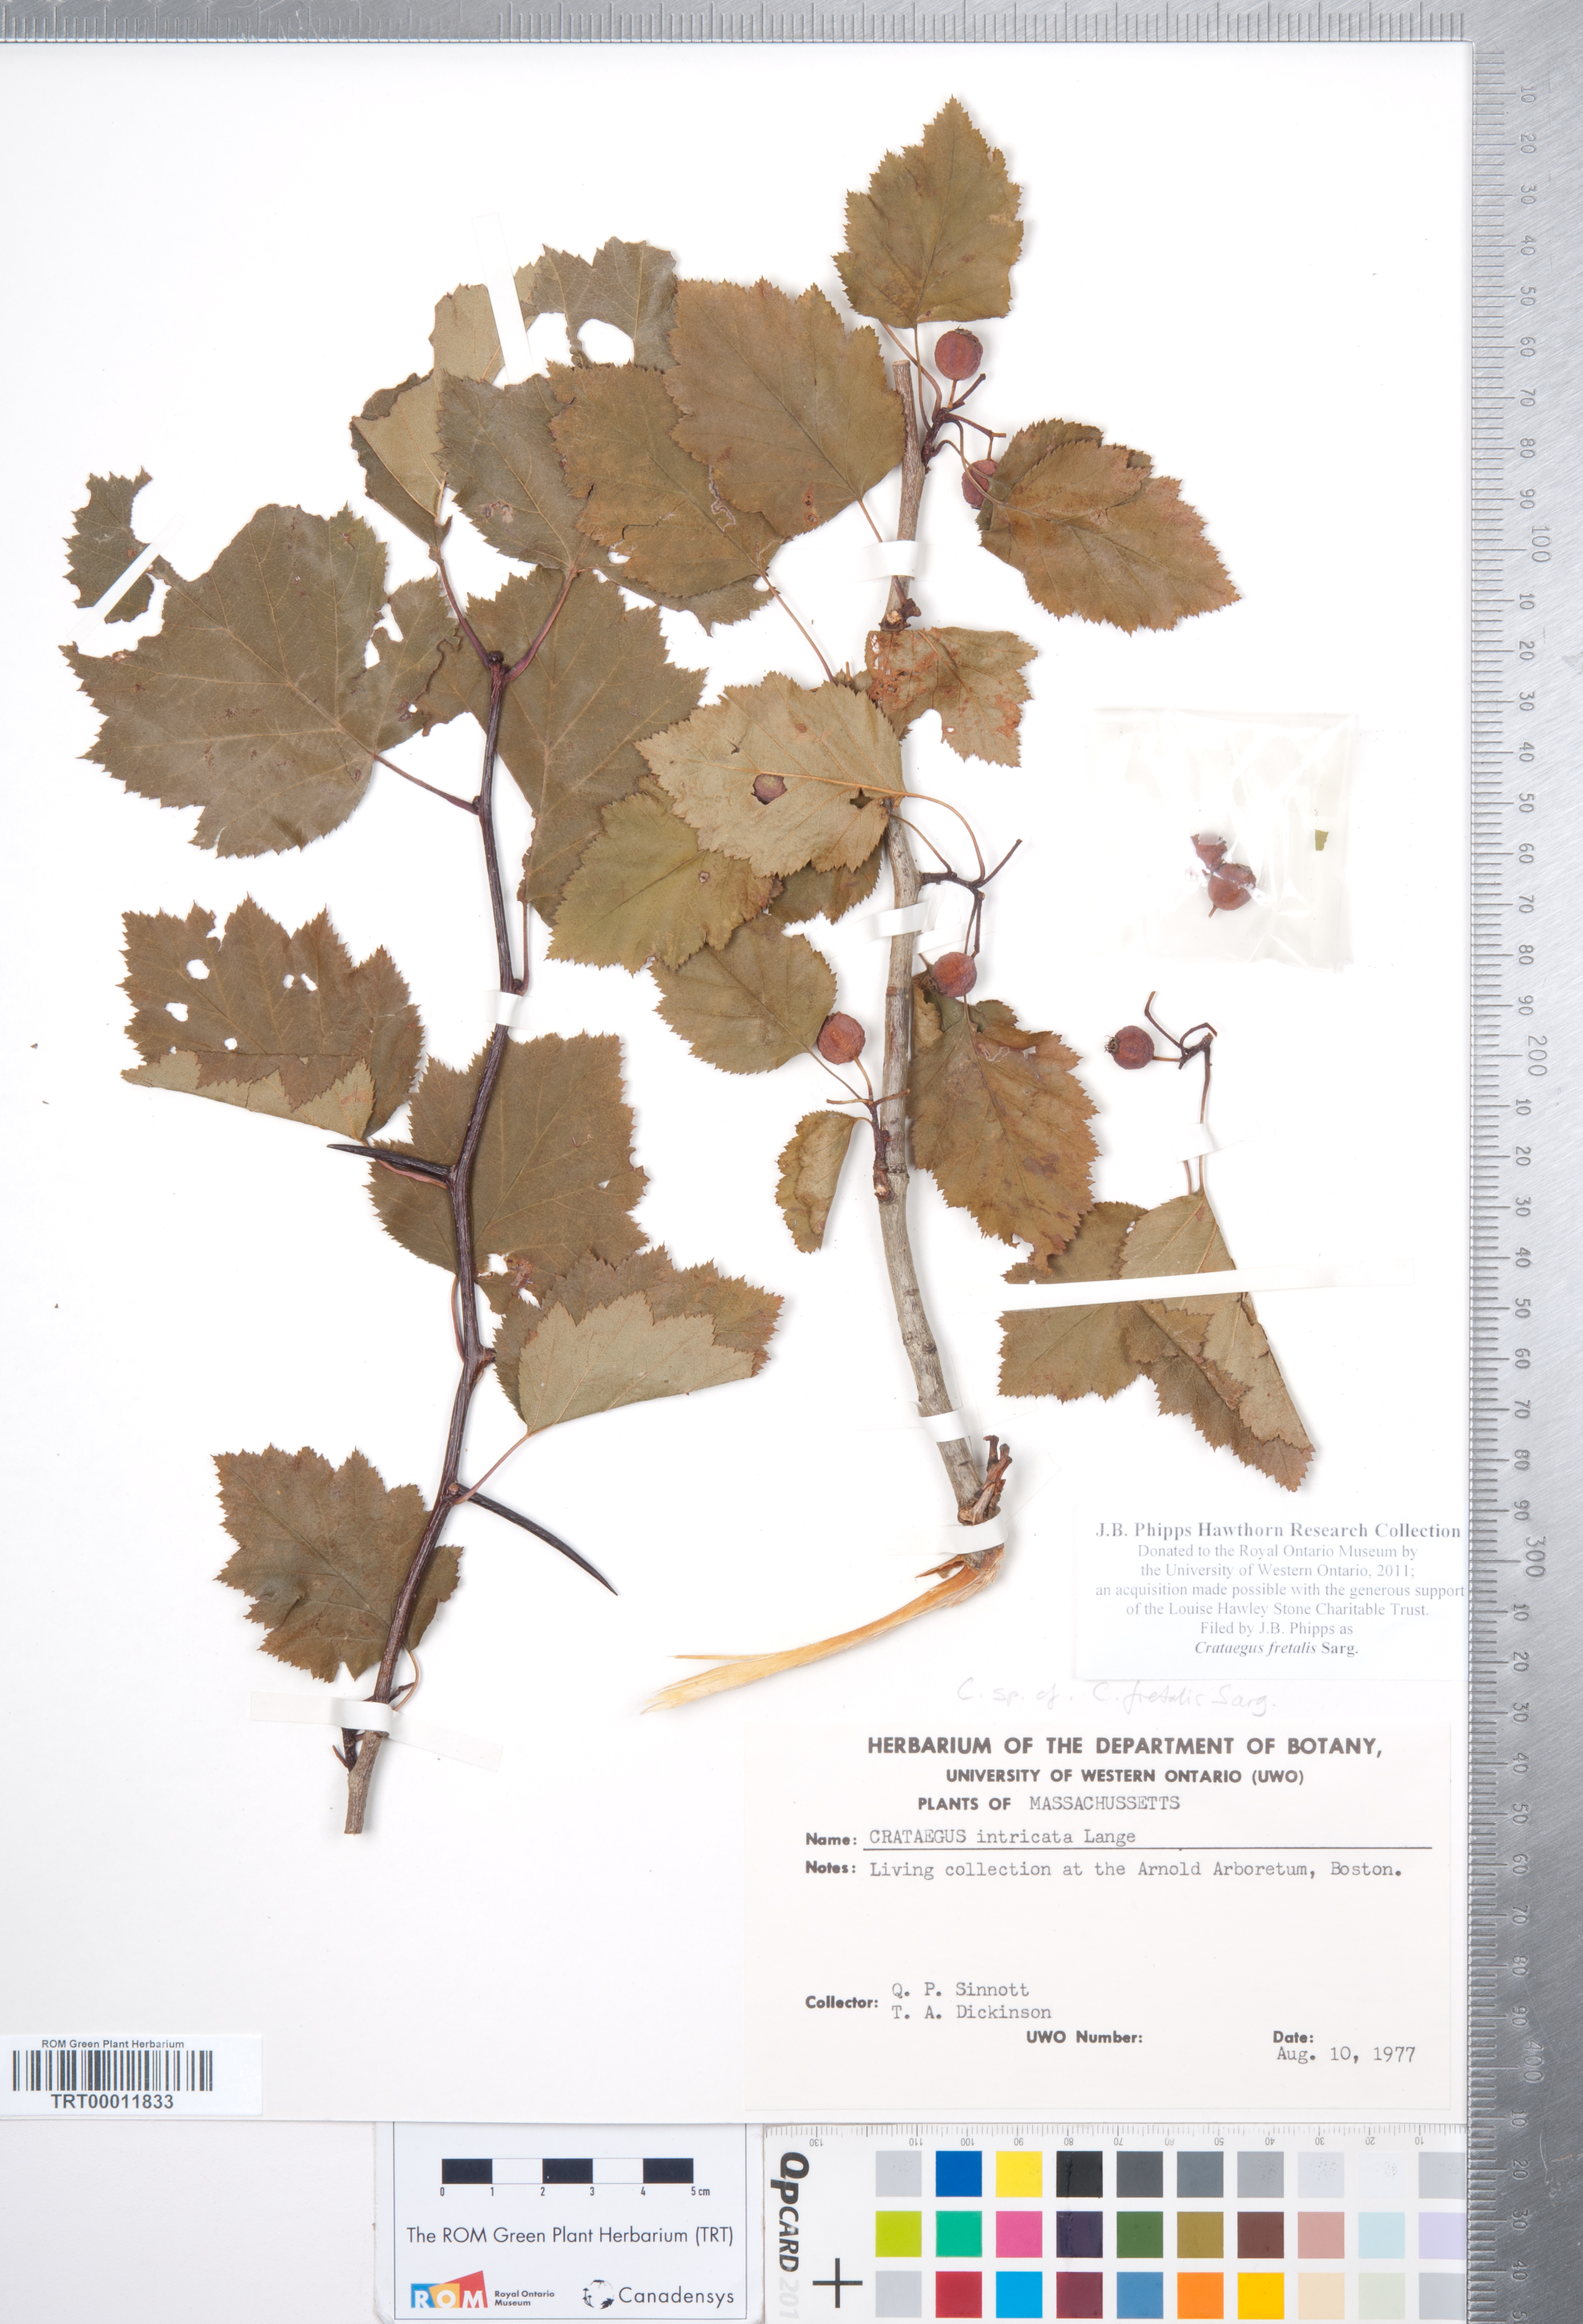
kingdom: Plantae
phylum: Tracheophyta
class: Magnoliopsida
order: Rosales
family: Rosaceae
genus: Crataegus
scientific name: Crataegus fretalis
